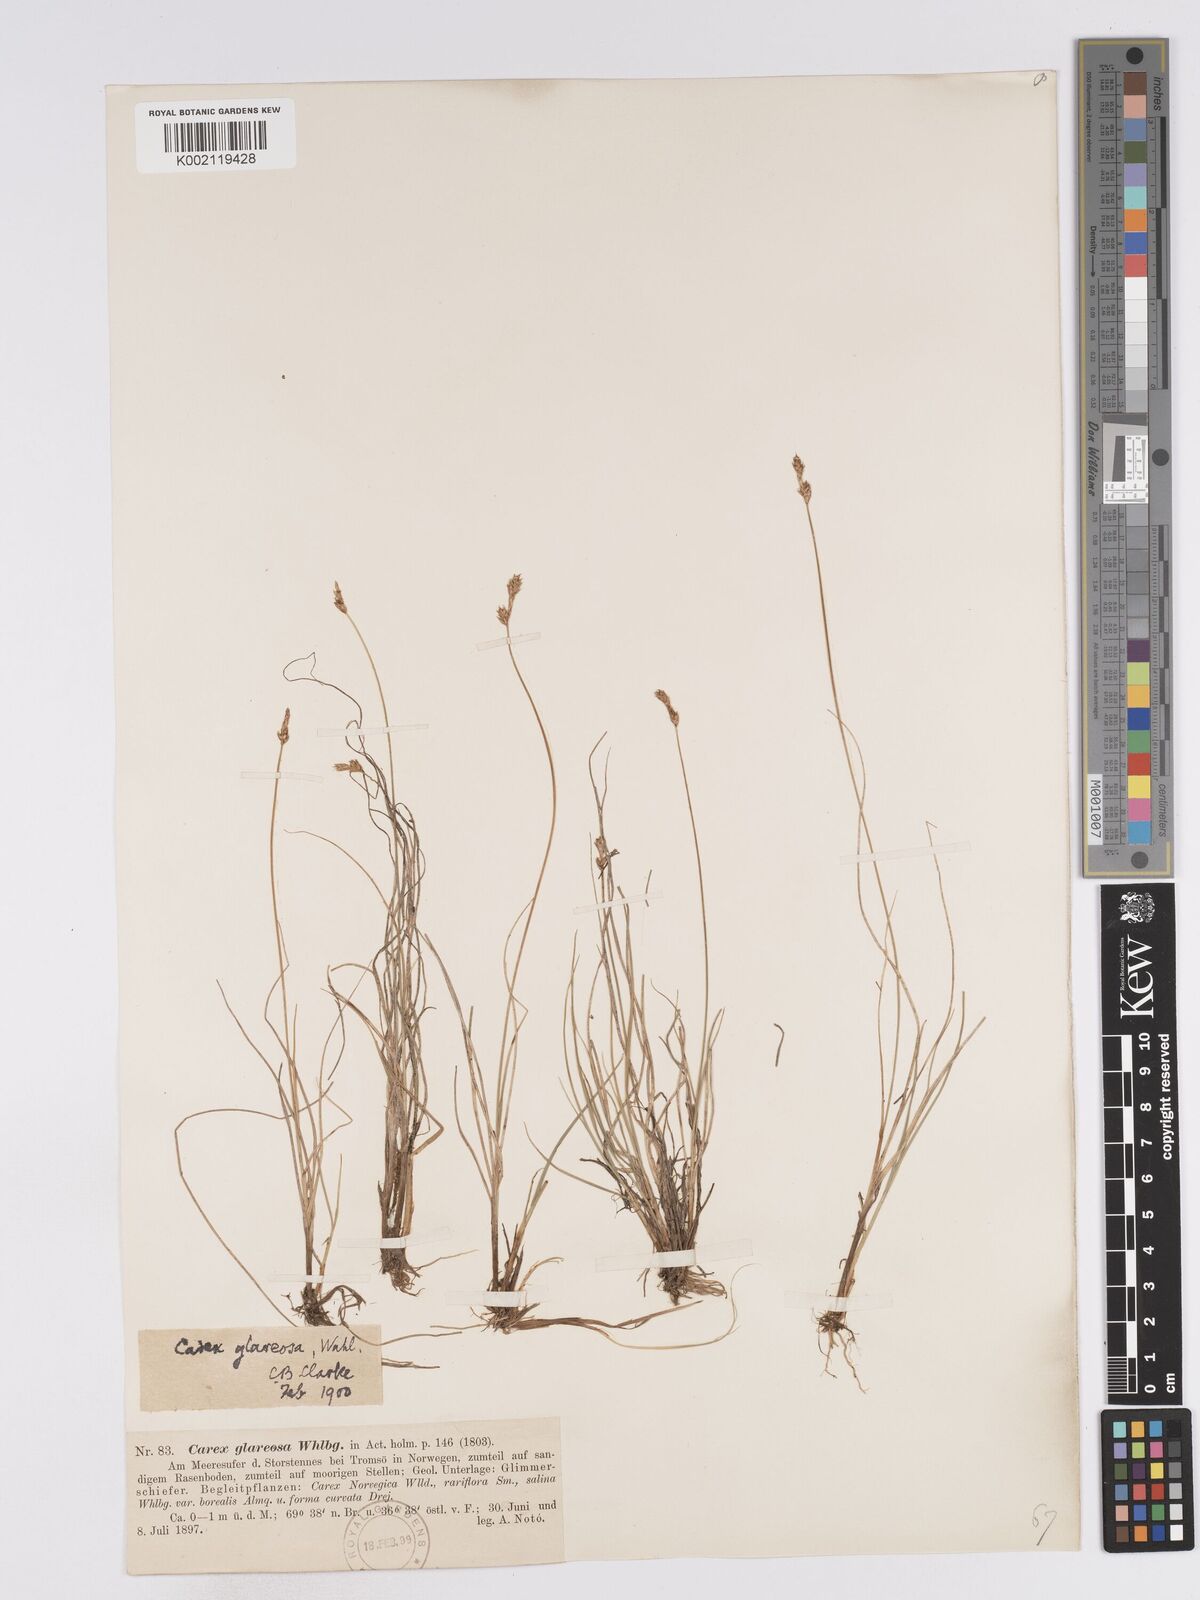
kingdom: Plantae
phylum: Tracheophyta
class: Liliopsida
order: Poales
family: Cyperaceae
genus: Carex
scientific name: Carex glareosa
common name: Clustered sedge
